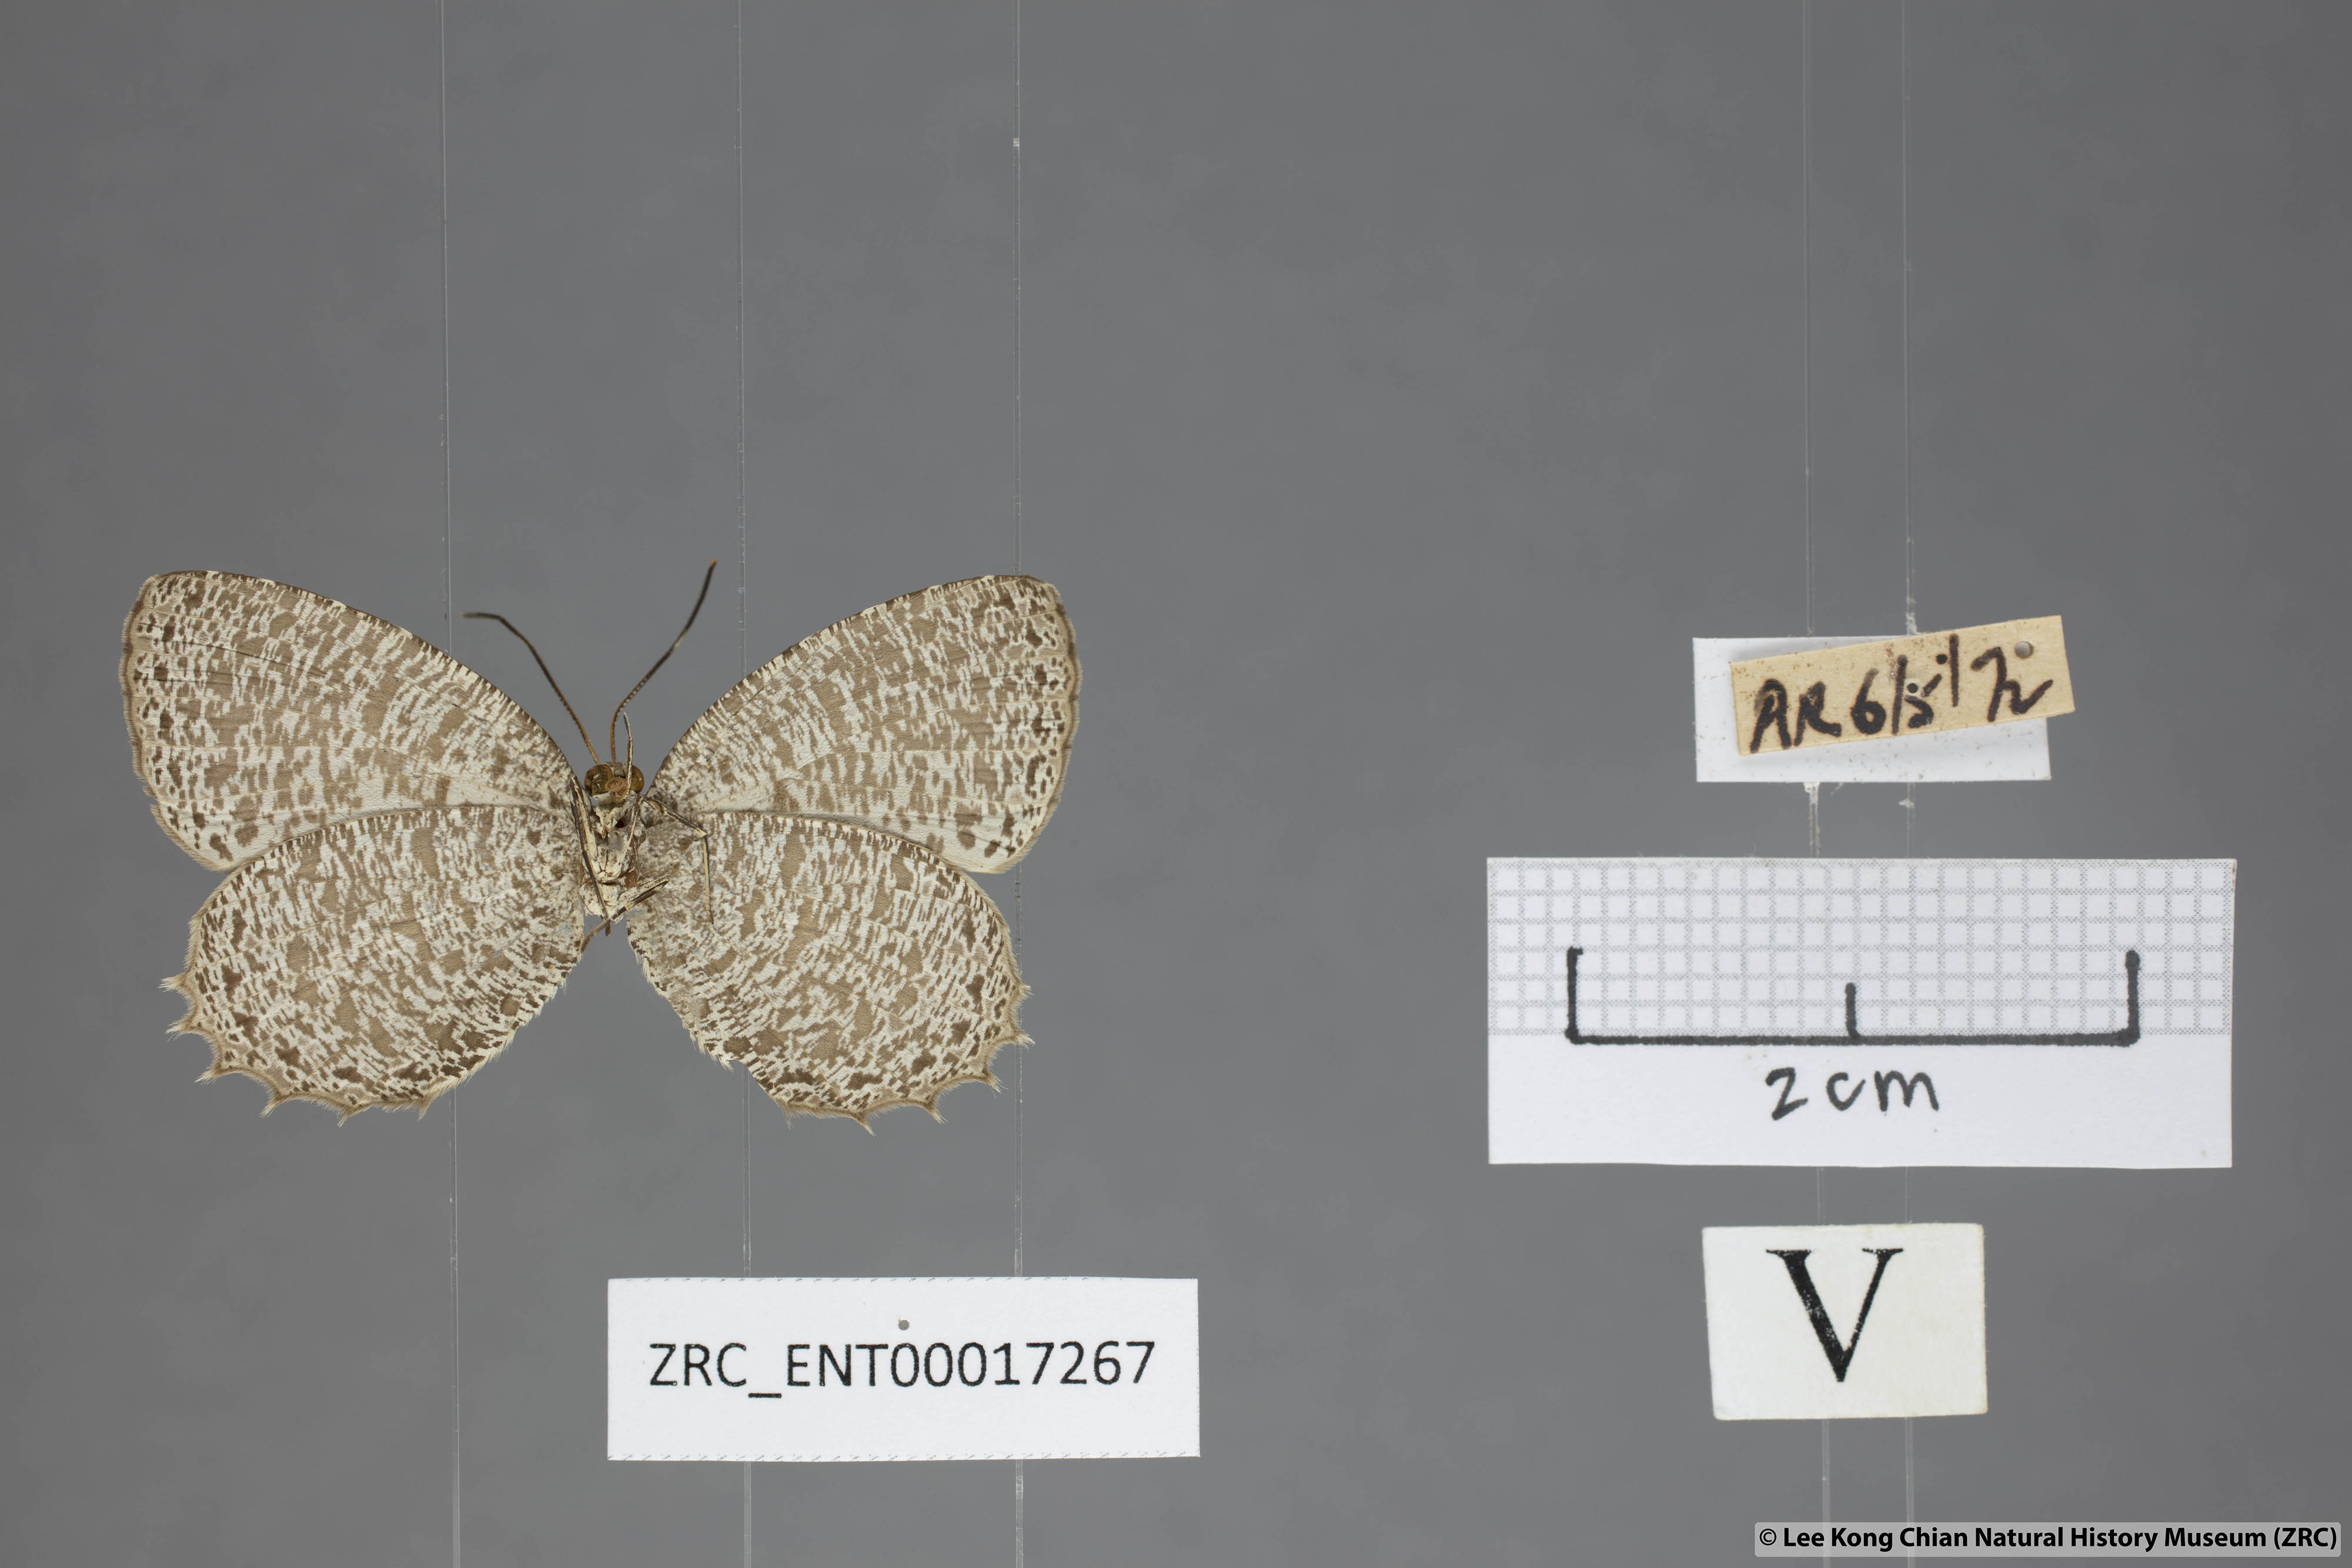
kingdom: Animalia
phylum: Arthropoda
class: Insecta
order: Lepidoptera
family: Lycaenidae
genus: Allotinus
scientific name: Allotinus leogoron
